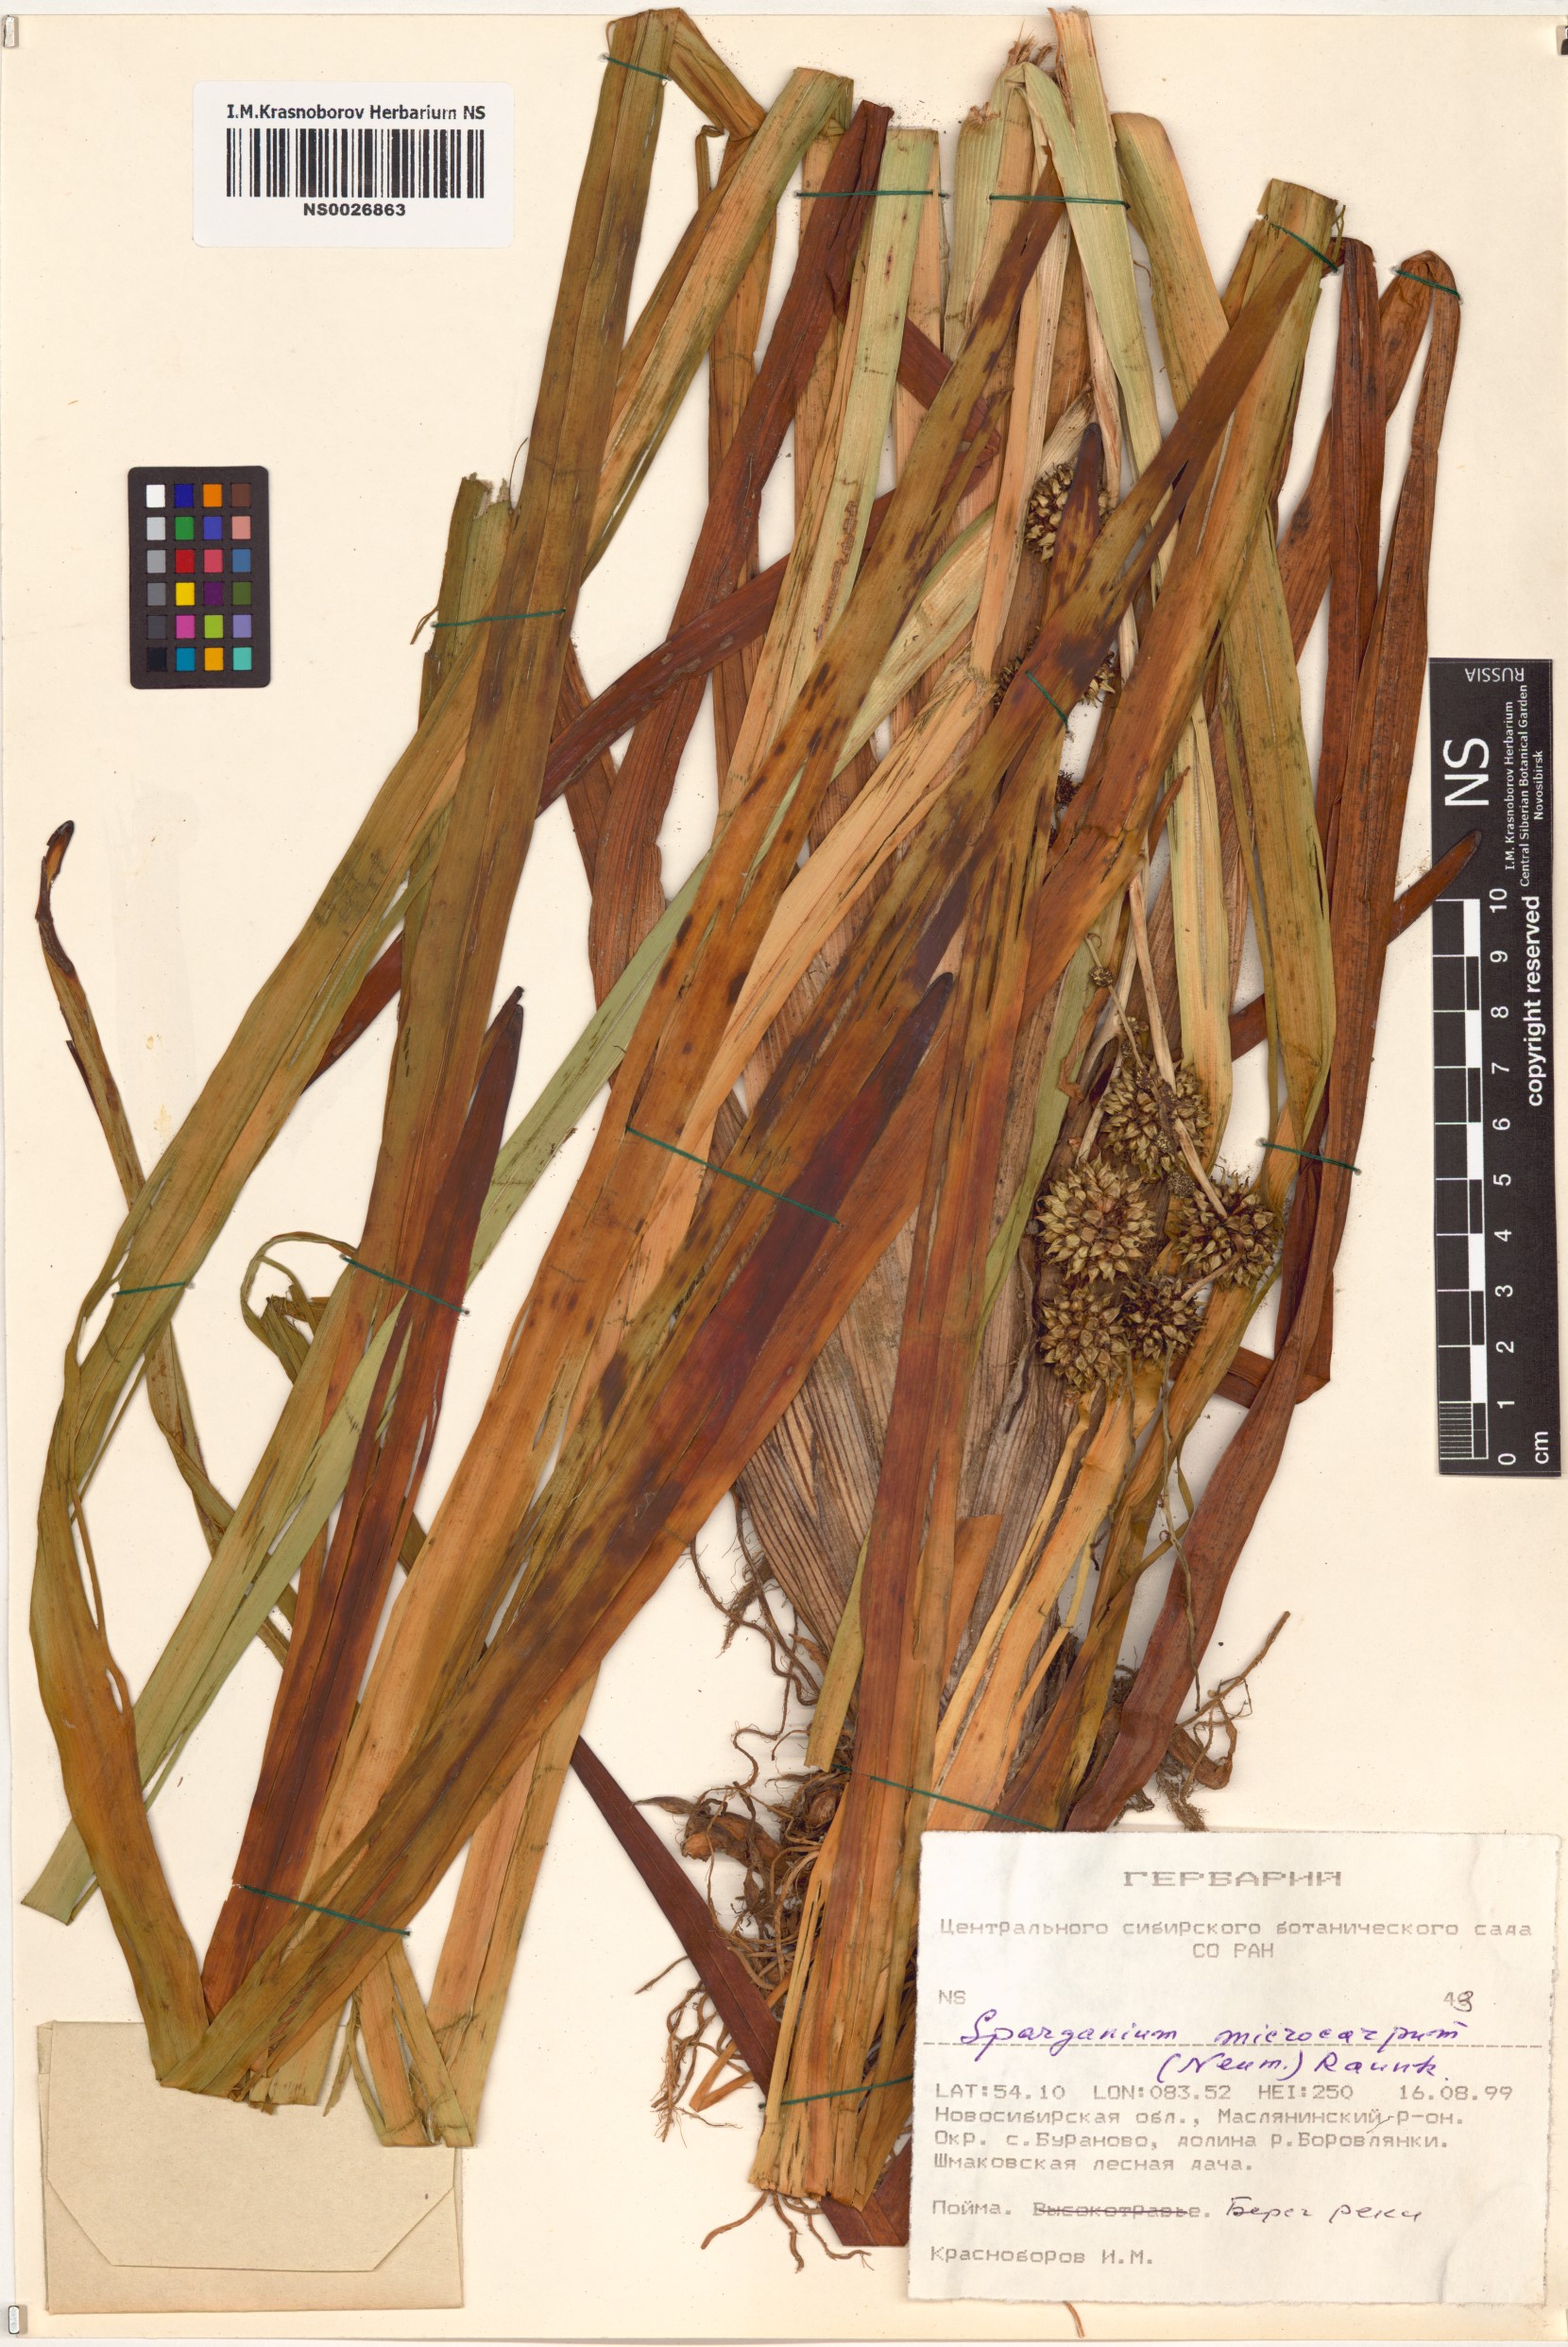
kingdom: Plantae
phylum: Tracheophyta
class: Liliopsida
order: Poales
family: Typhaceae
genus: Sparganium
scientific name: Sparganium erectum
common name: Branched bur-reed
